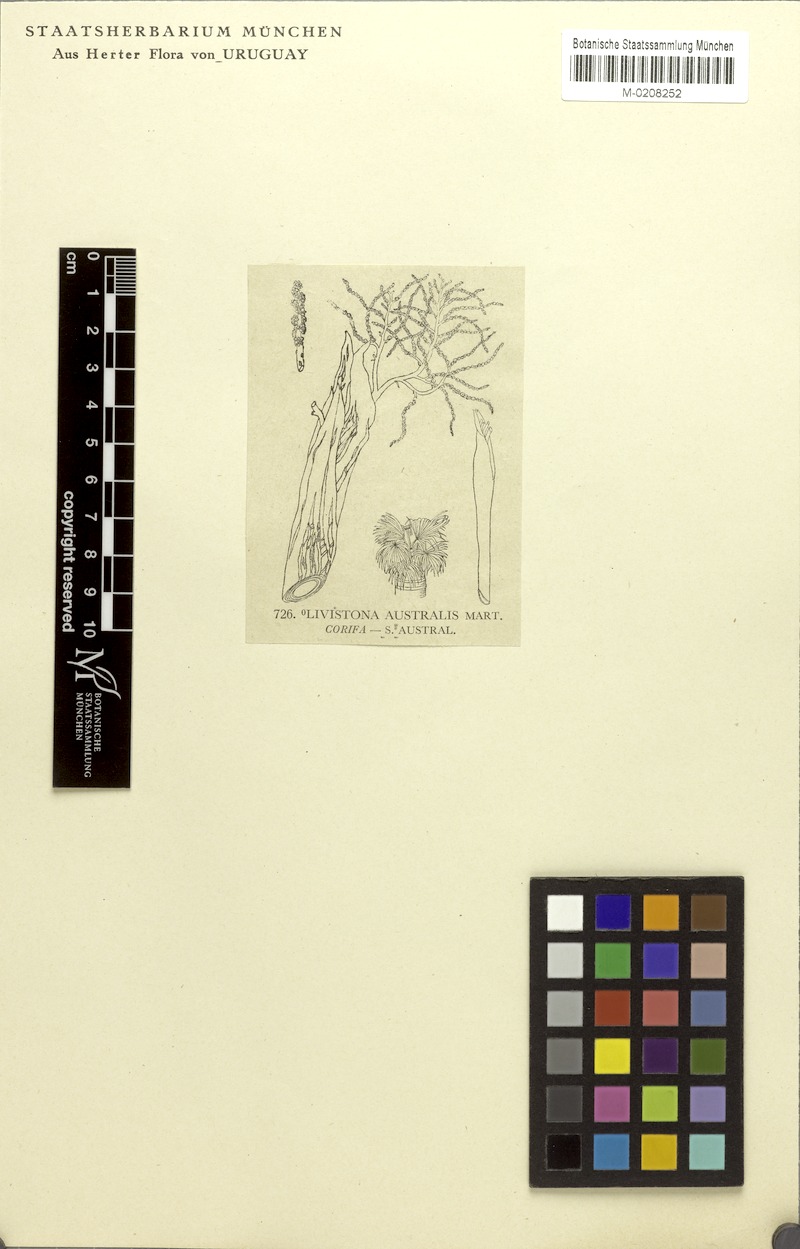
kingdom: Plantae
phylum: Tracheophyta
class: Liliopsida
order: Arecales
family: Arecaceae
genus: Livistona
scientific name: Livistona australis
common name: Cabbage fan palm
